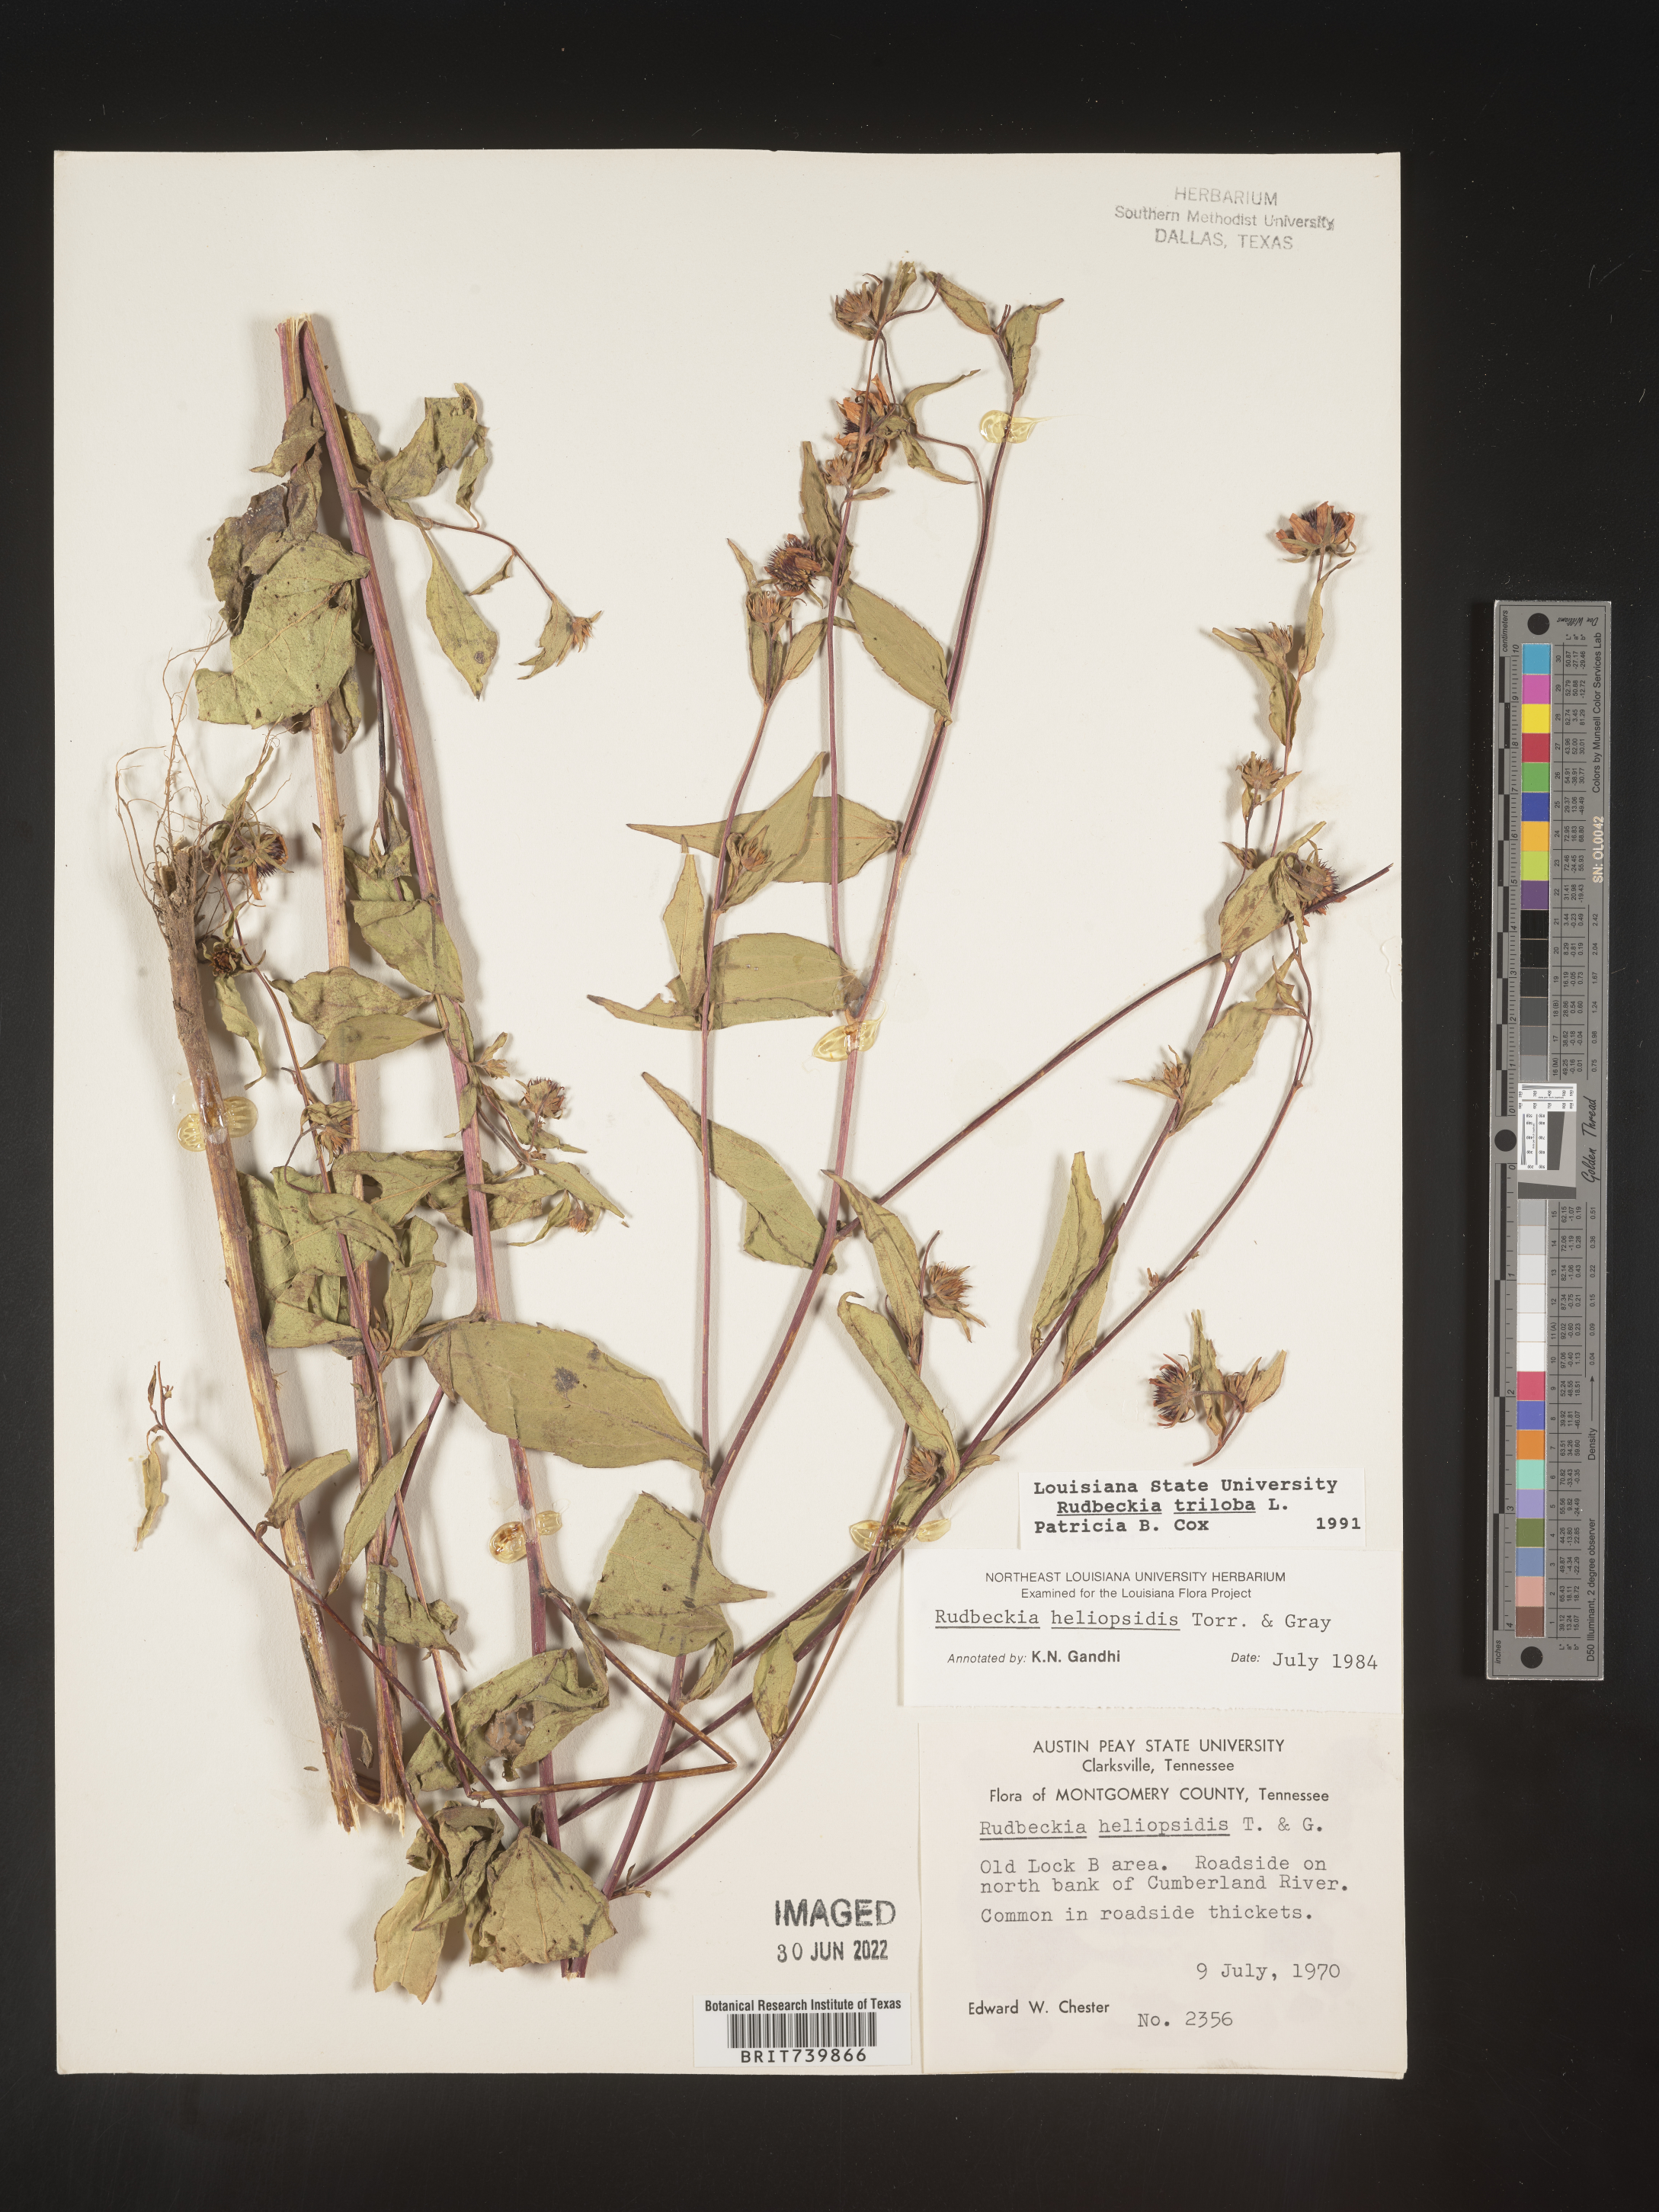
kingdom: Plantae
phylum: Tracheophyta
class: Magnoliopsida
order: Asterales
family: Asteraceae
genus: Rudbeckia
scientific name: Rudbeckia triloba
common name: Thin-leaved coneflower
